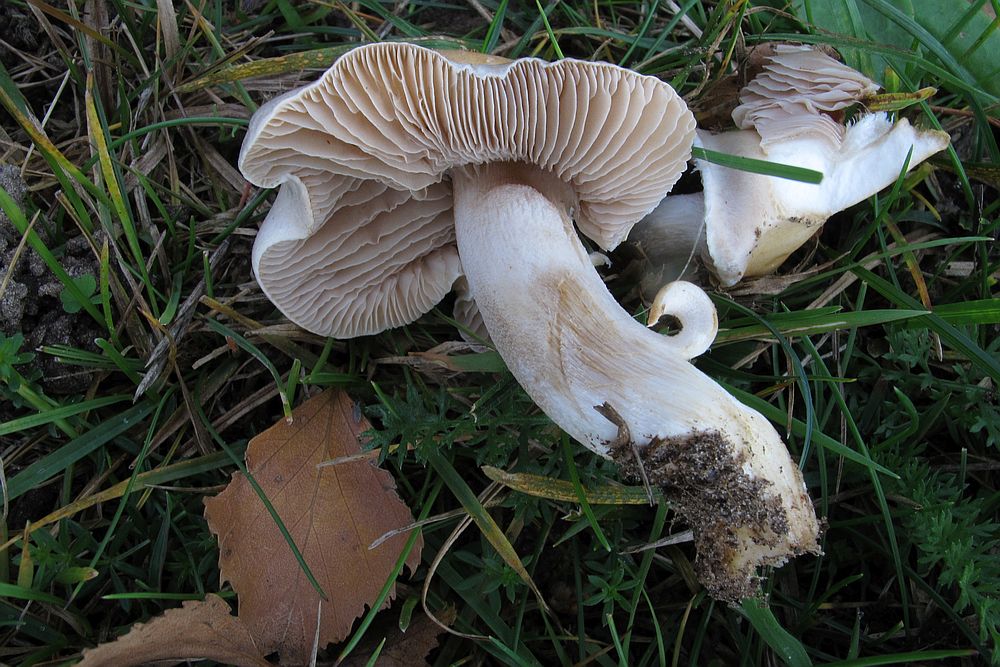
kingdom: Fungi
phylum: Basidiomycota
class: Agaricomycetes
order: Agaricales
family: Hymenogastraceae
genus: Hebeloma
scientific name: Hebeloma sinapizans
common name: ræddike-tåreblad
